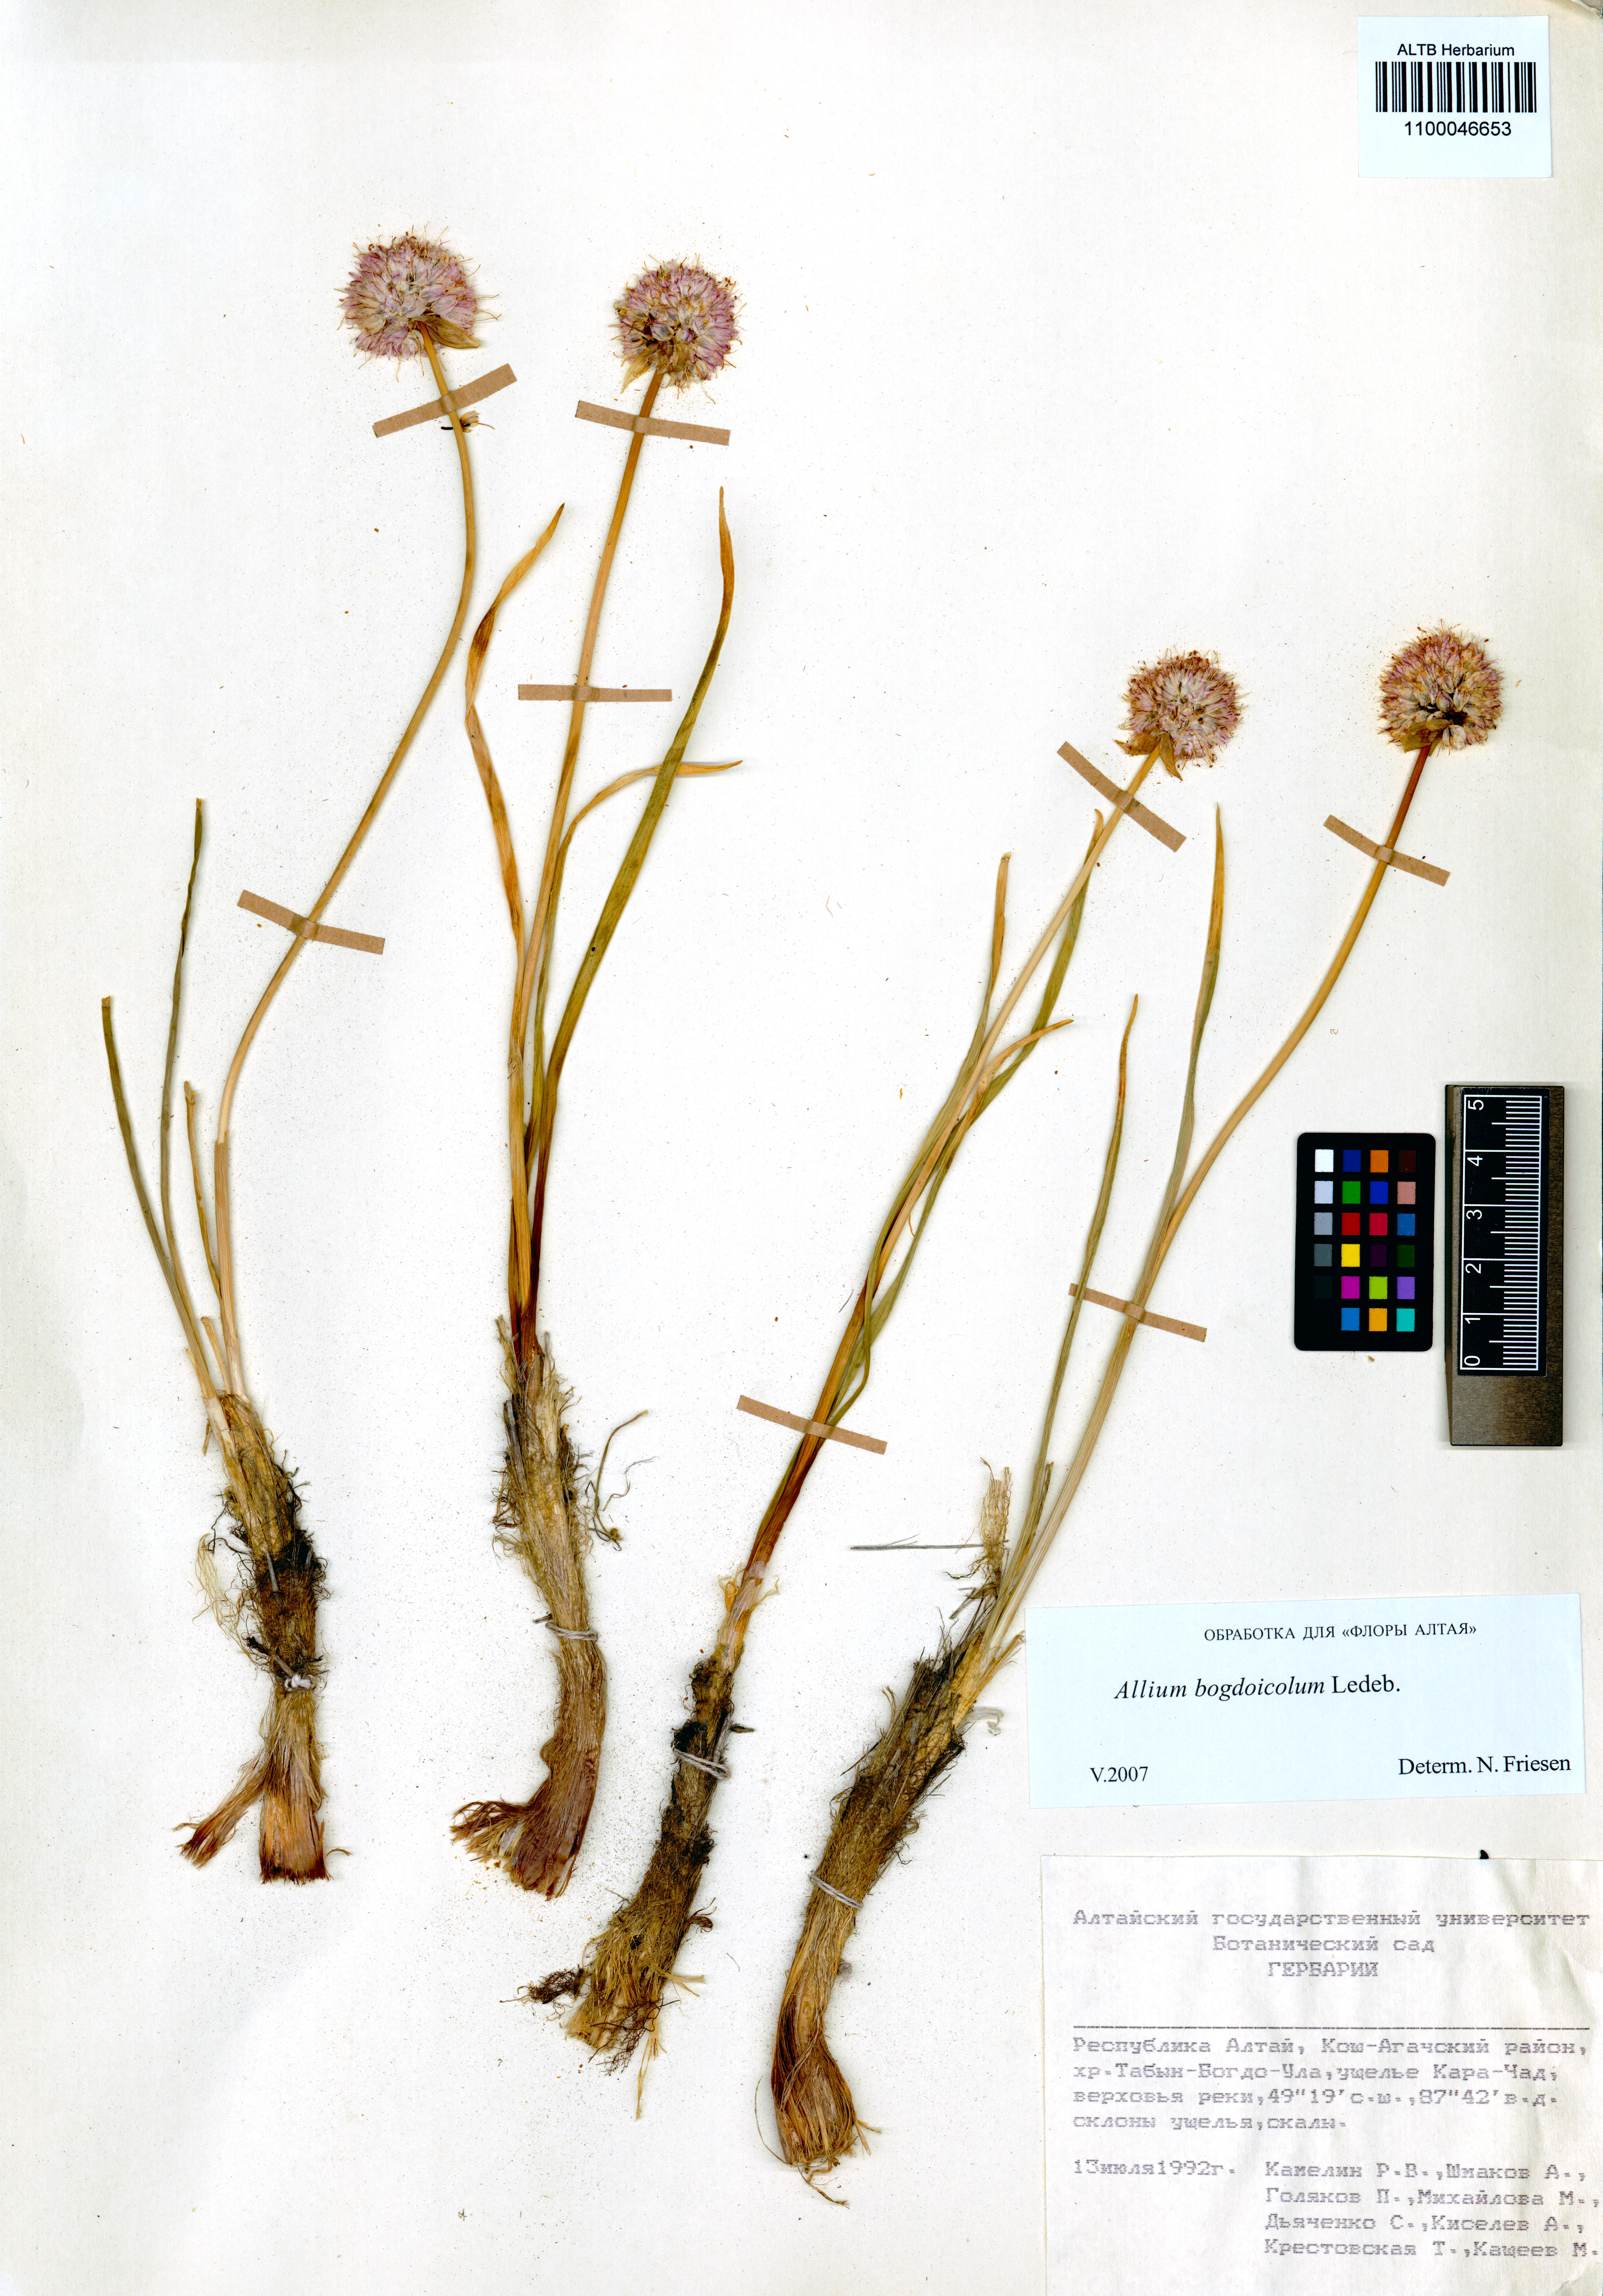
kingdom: Plantae
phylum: Tracheophyta
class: Liliopsida
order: Asparagales
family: Amaryllidaceae
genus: Allium
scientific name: Allium schrenkii
